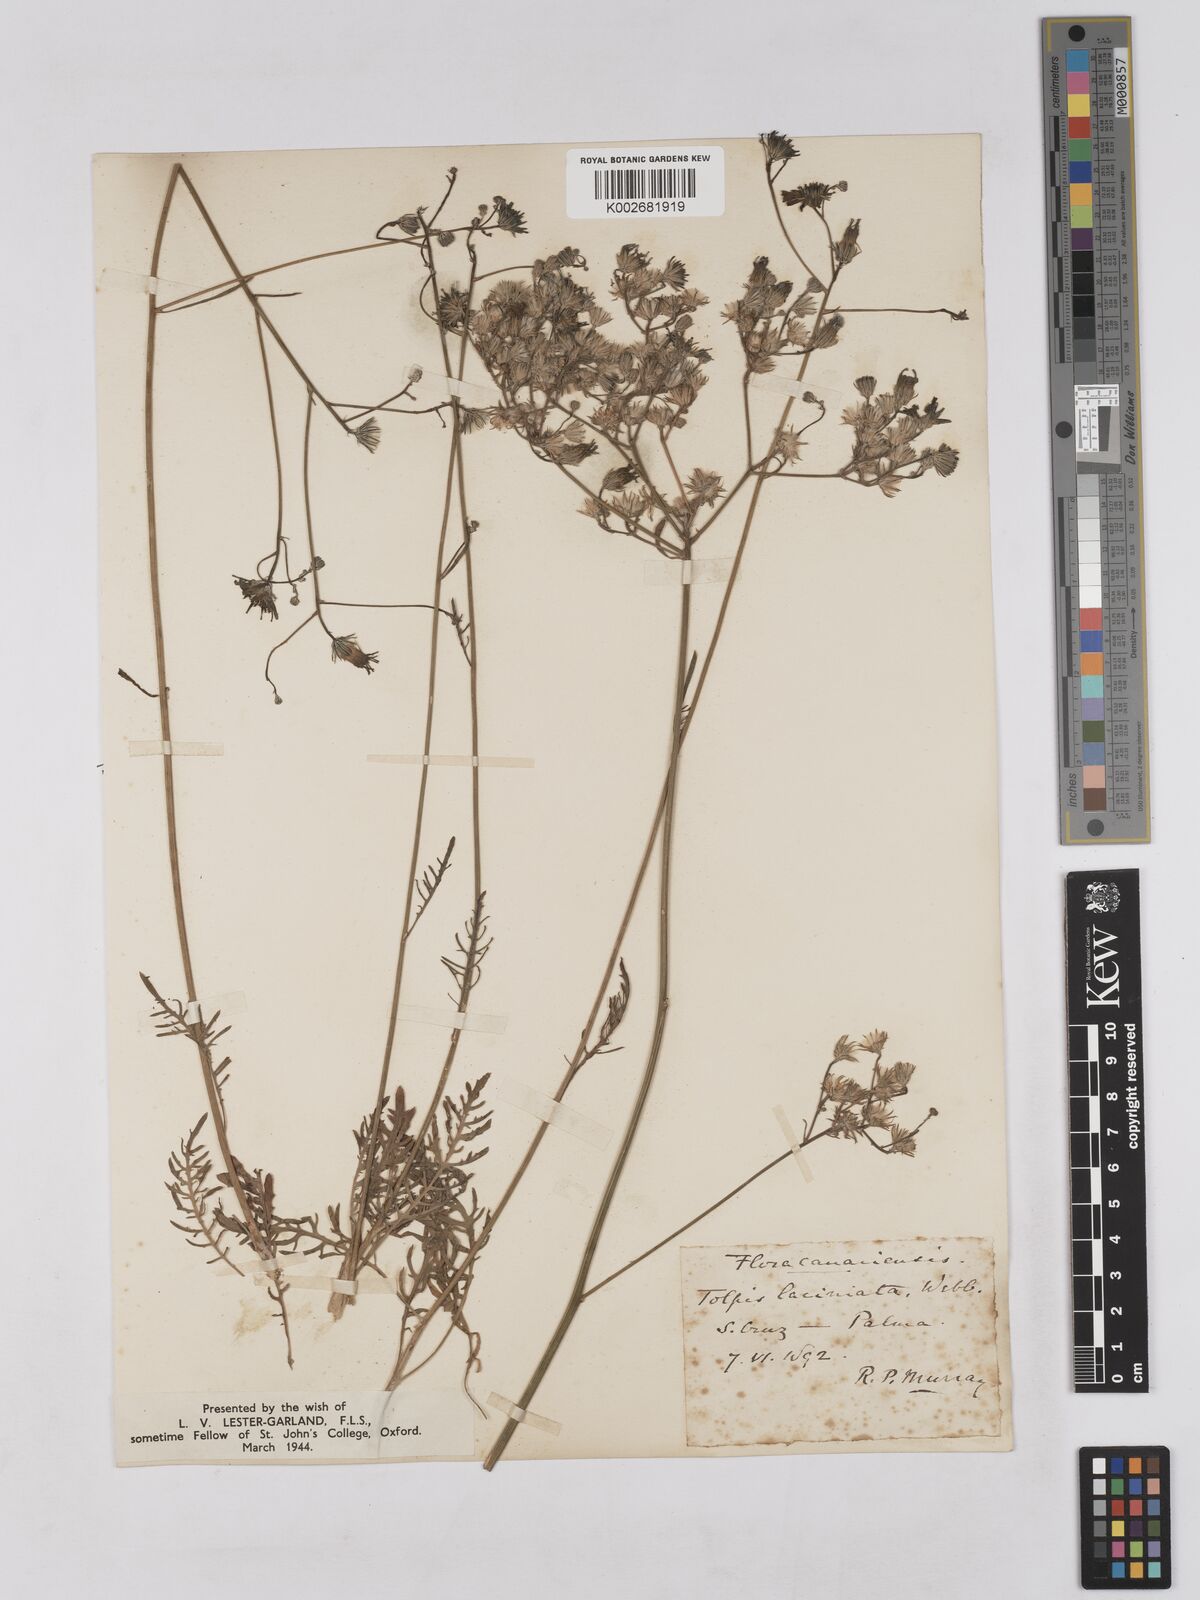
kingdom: Plantae
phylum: Tracheophyta
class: Magnoliopsida
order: Asterales
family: Asteraceae
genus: Tolpis
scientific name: Tolpis laciniata
